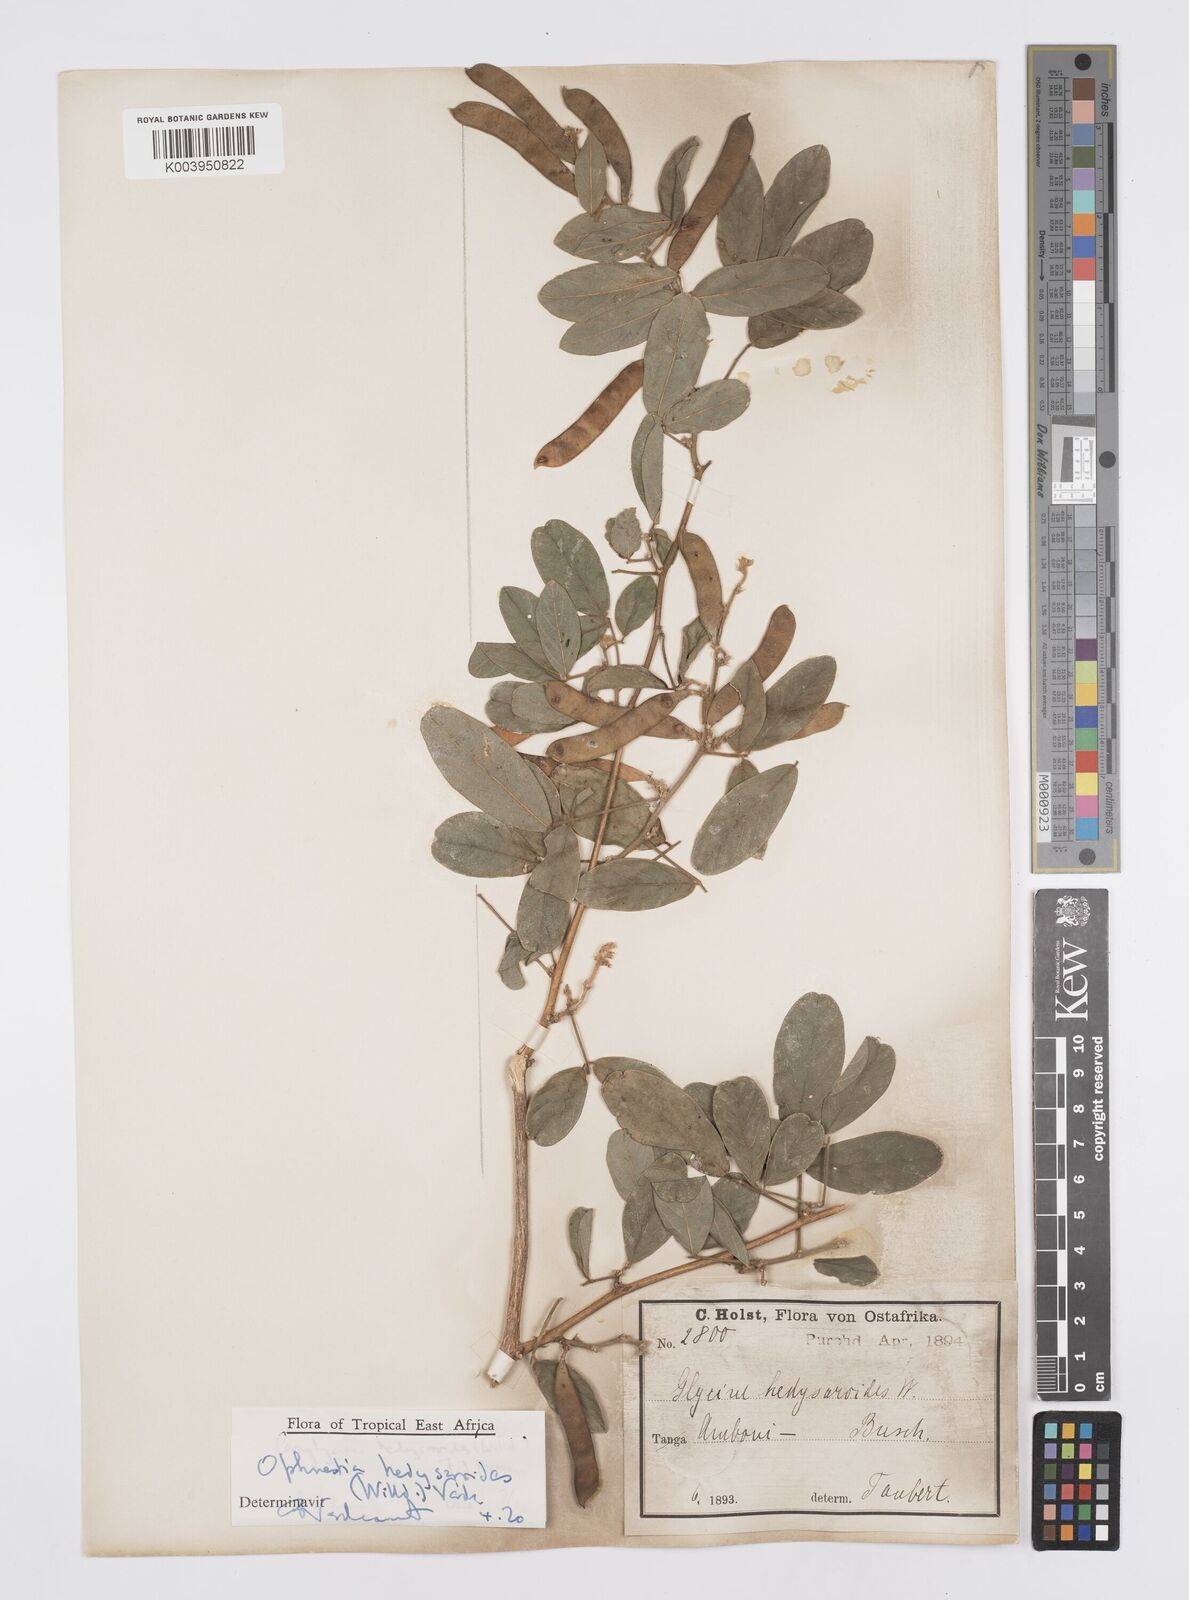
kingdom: Plantae
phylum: Tracheophyta
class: Magnoliopsida
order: Fabales
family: Fabaceae
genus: Ophrestia
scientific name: Ophrestia hedysaroides
